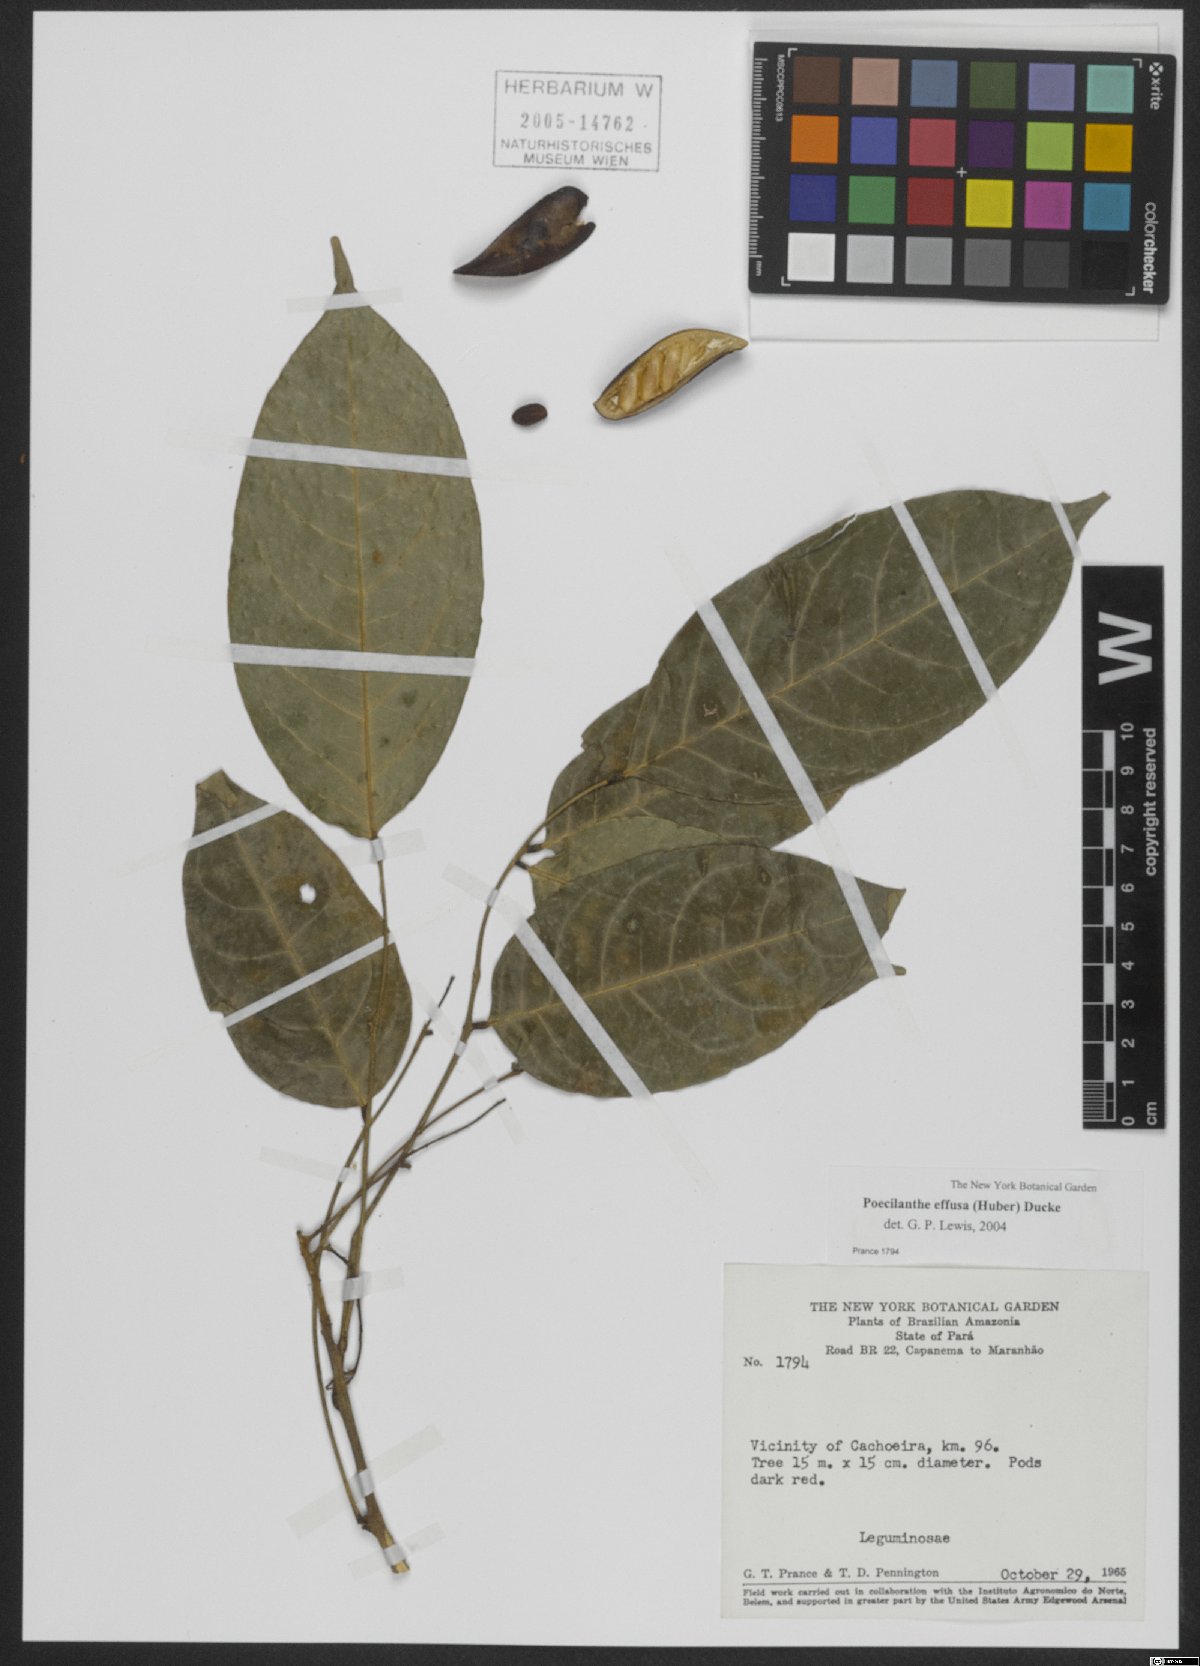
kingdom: Plantae
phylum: Tracheophyta
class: Magnoliopsida
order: Fabales
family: Fabaceae
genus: Amphiodon
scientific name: Amphiodon effusus
